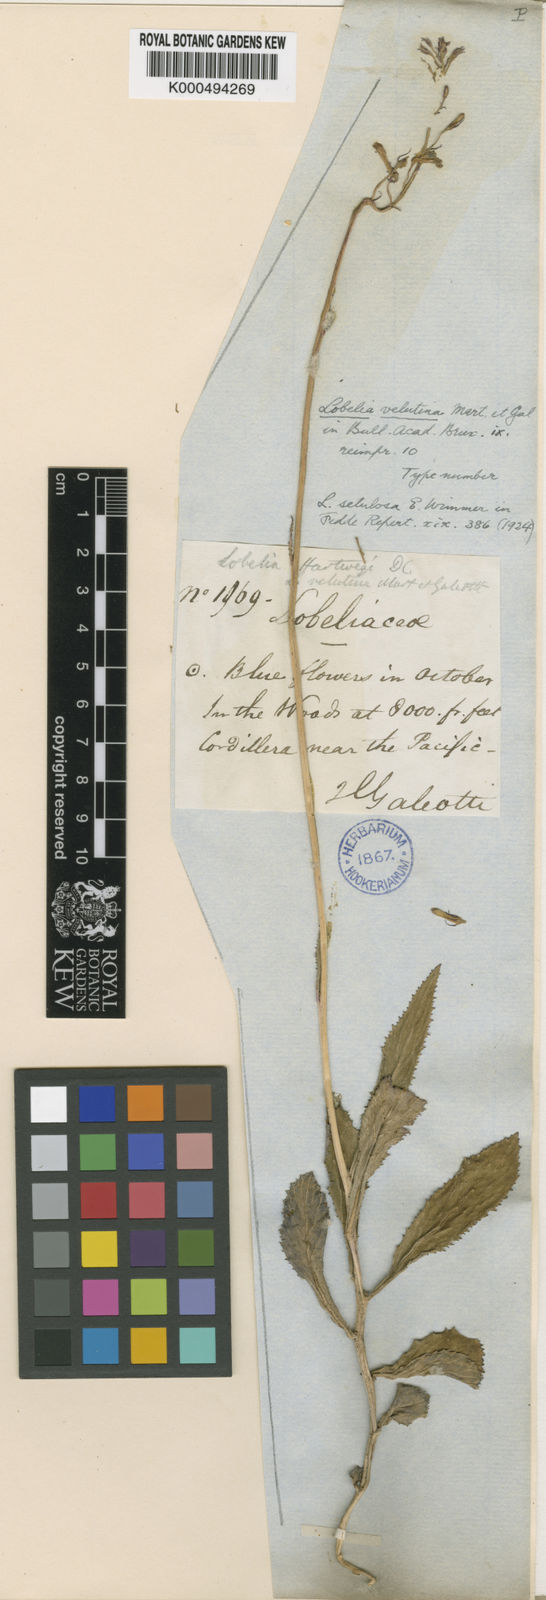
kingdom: Plantae
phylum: Tracheophyta
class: Magnoliopsida
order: Asterales
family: Campanulaceae
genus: Lobelia
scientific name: Lobelia hartwegii
